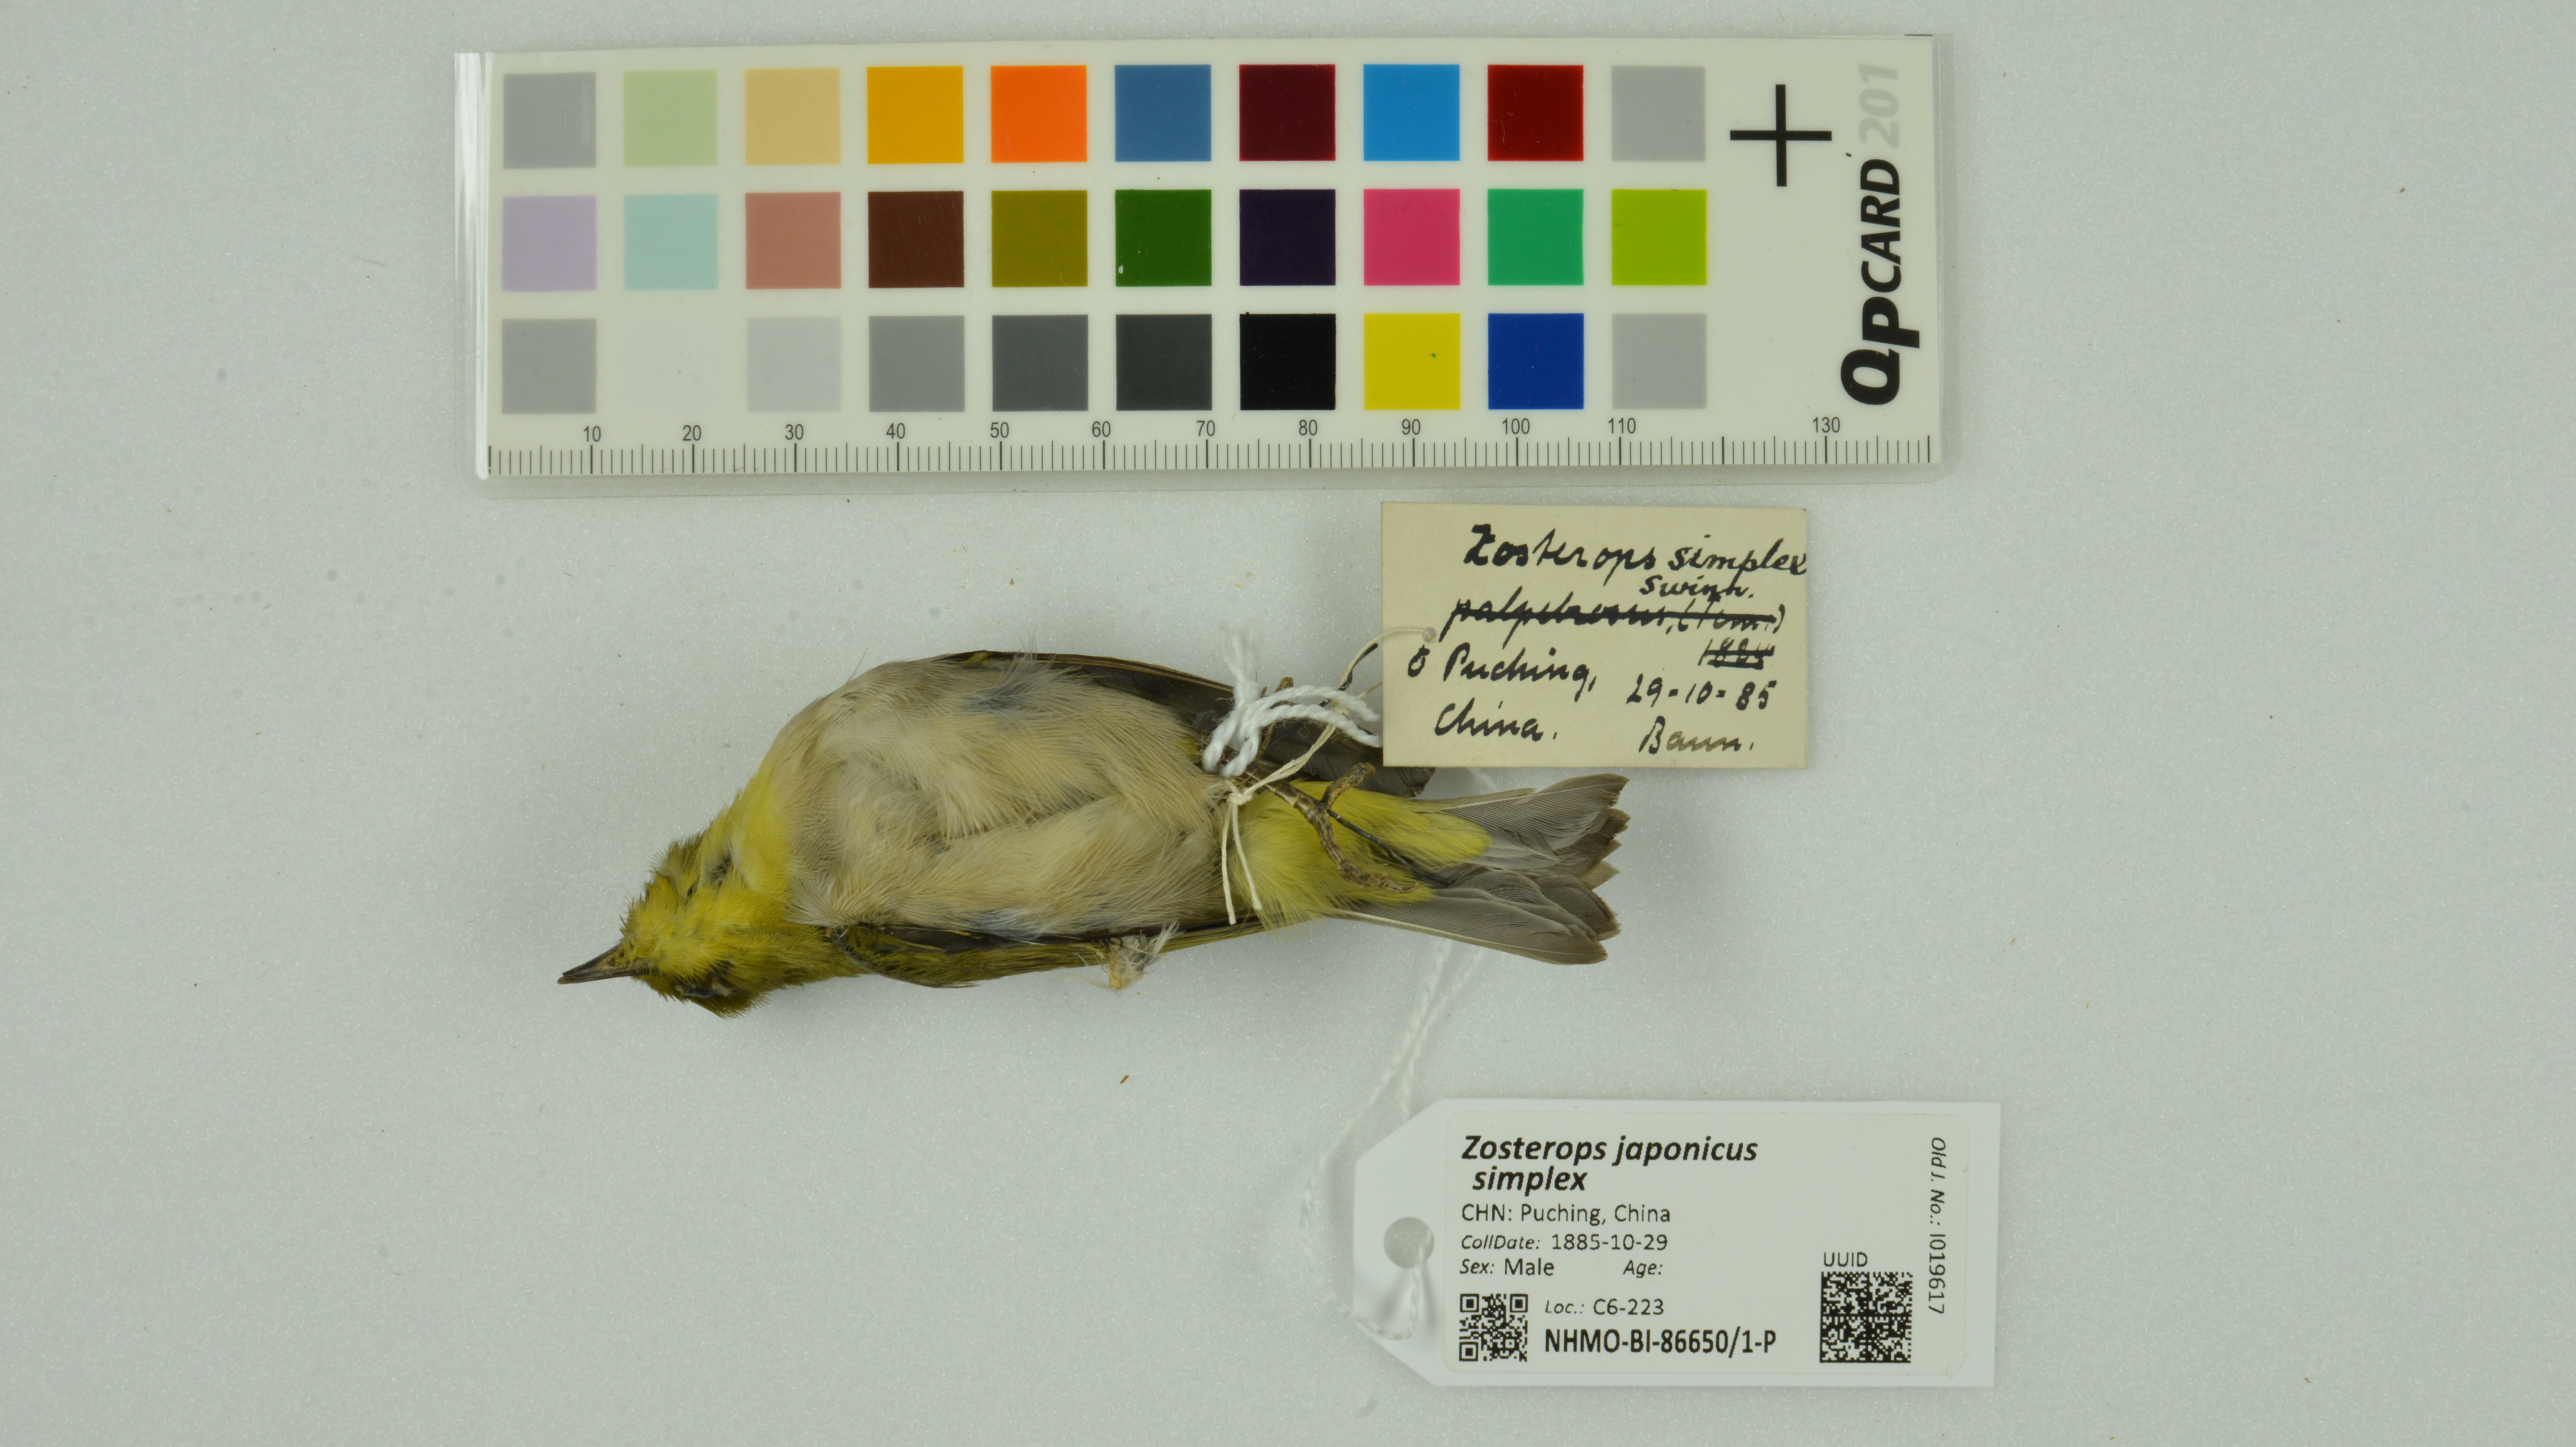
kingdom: Animalia
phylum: Chordata
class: Aves
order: Passeriformes
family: Zosteropidae
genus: Zosterops
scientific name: Zosterops simplex
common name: Swinhoe's white-eye
